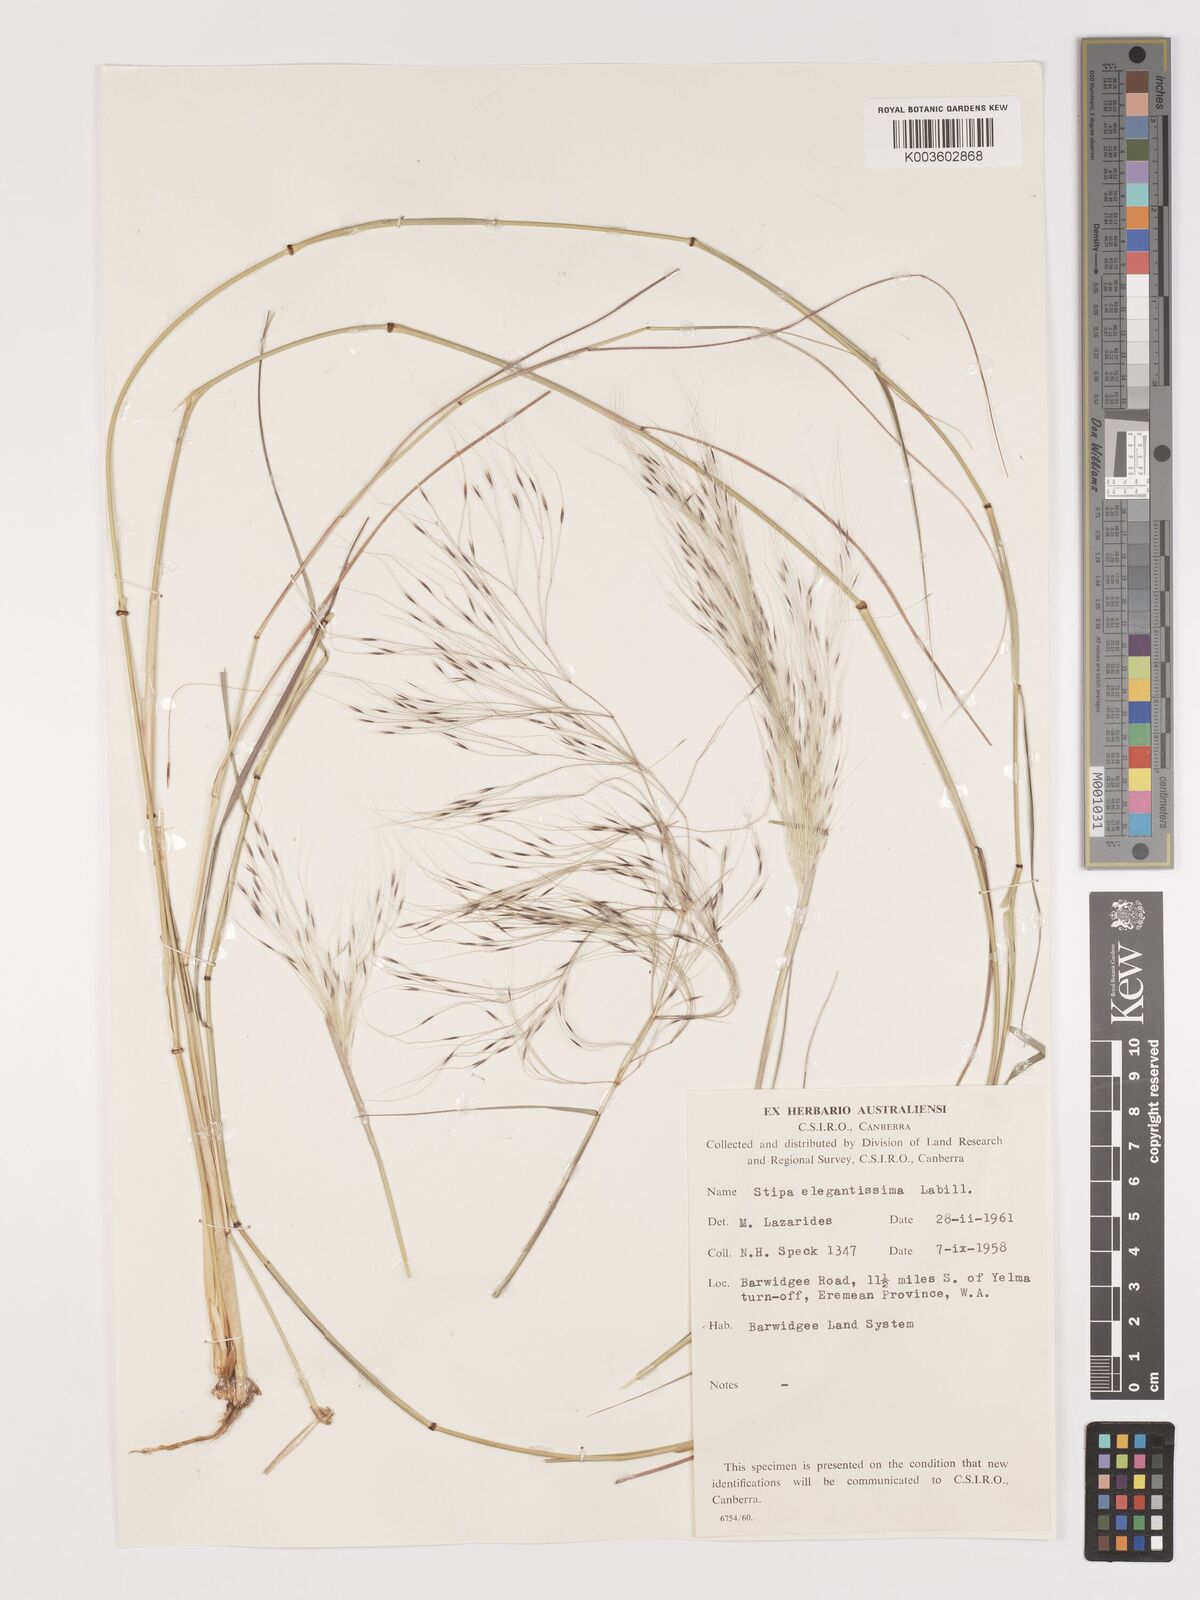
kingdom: Plantae
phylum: Tracheophyta
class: Liliopsida
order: Poales
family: Poaceae
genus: Austrostipa
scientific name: Austrostipa elegantissima
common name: Feather spear grass
